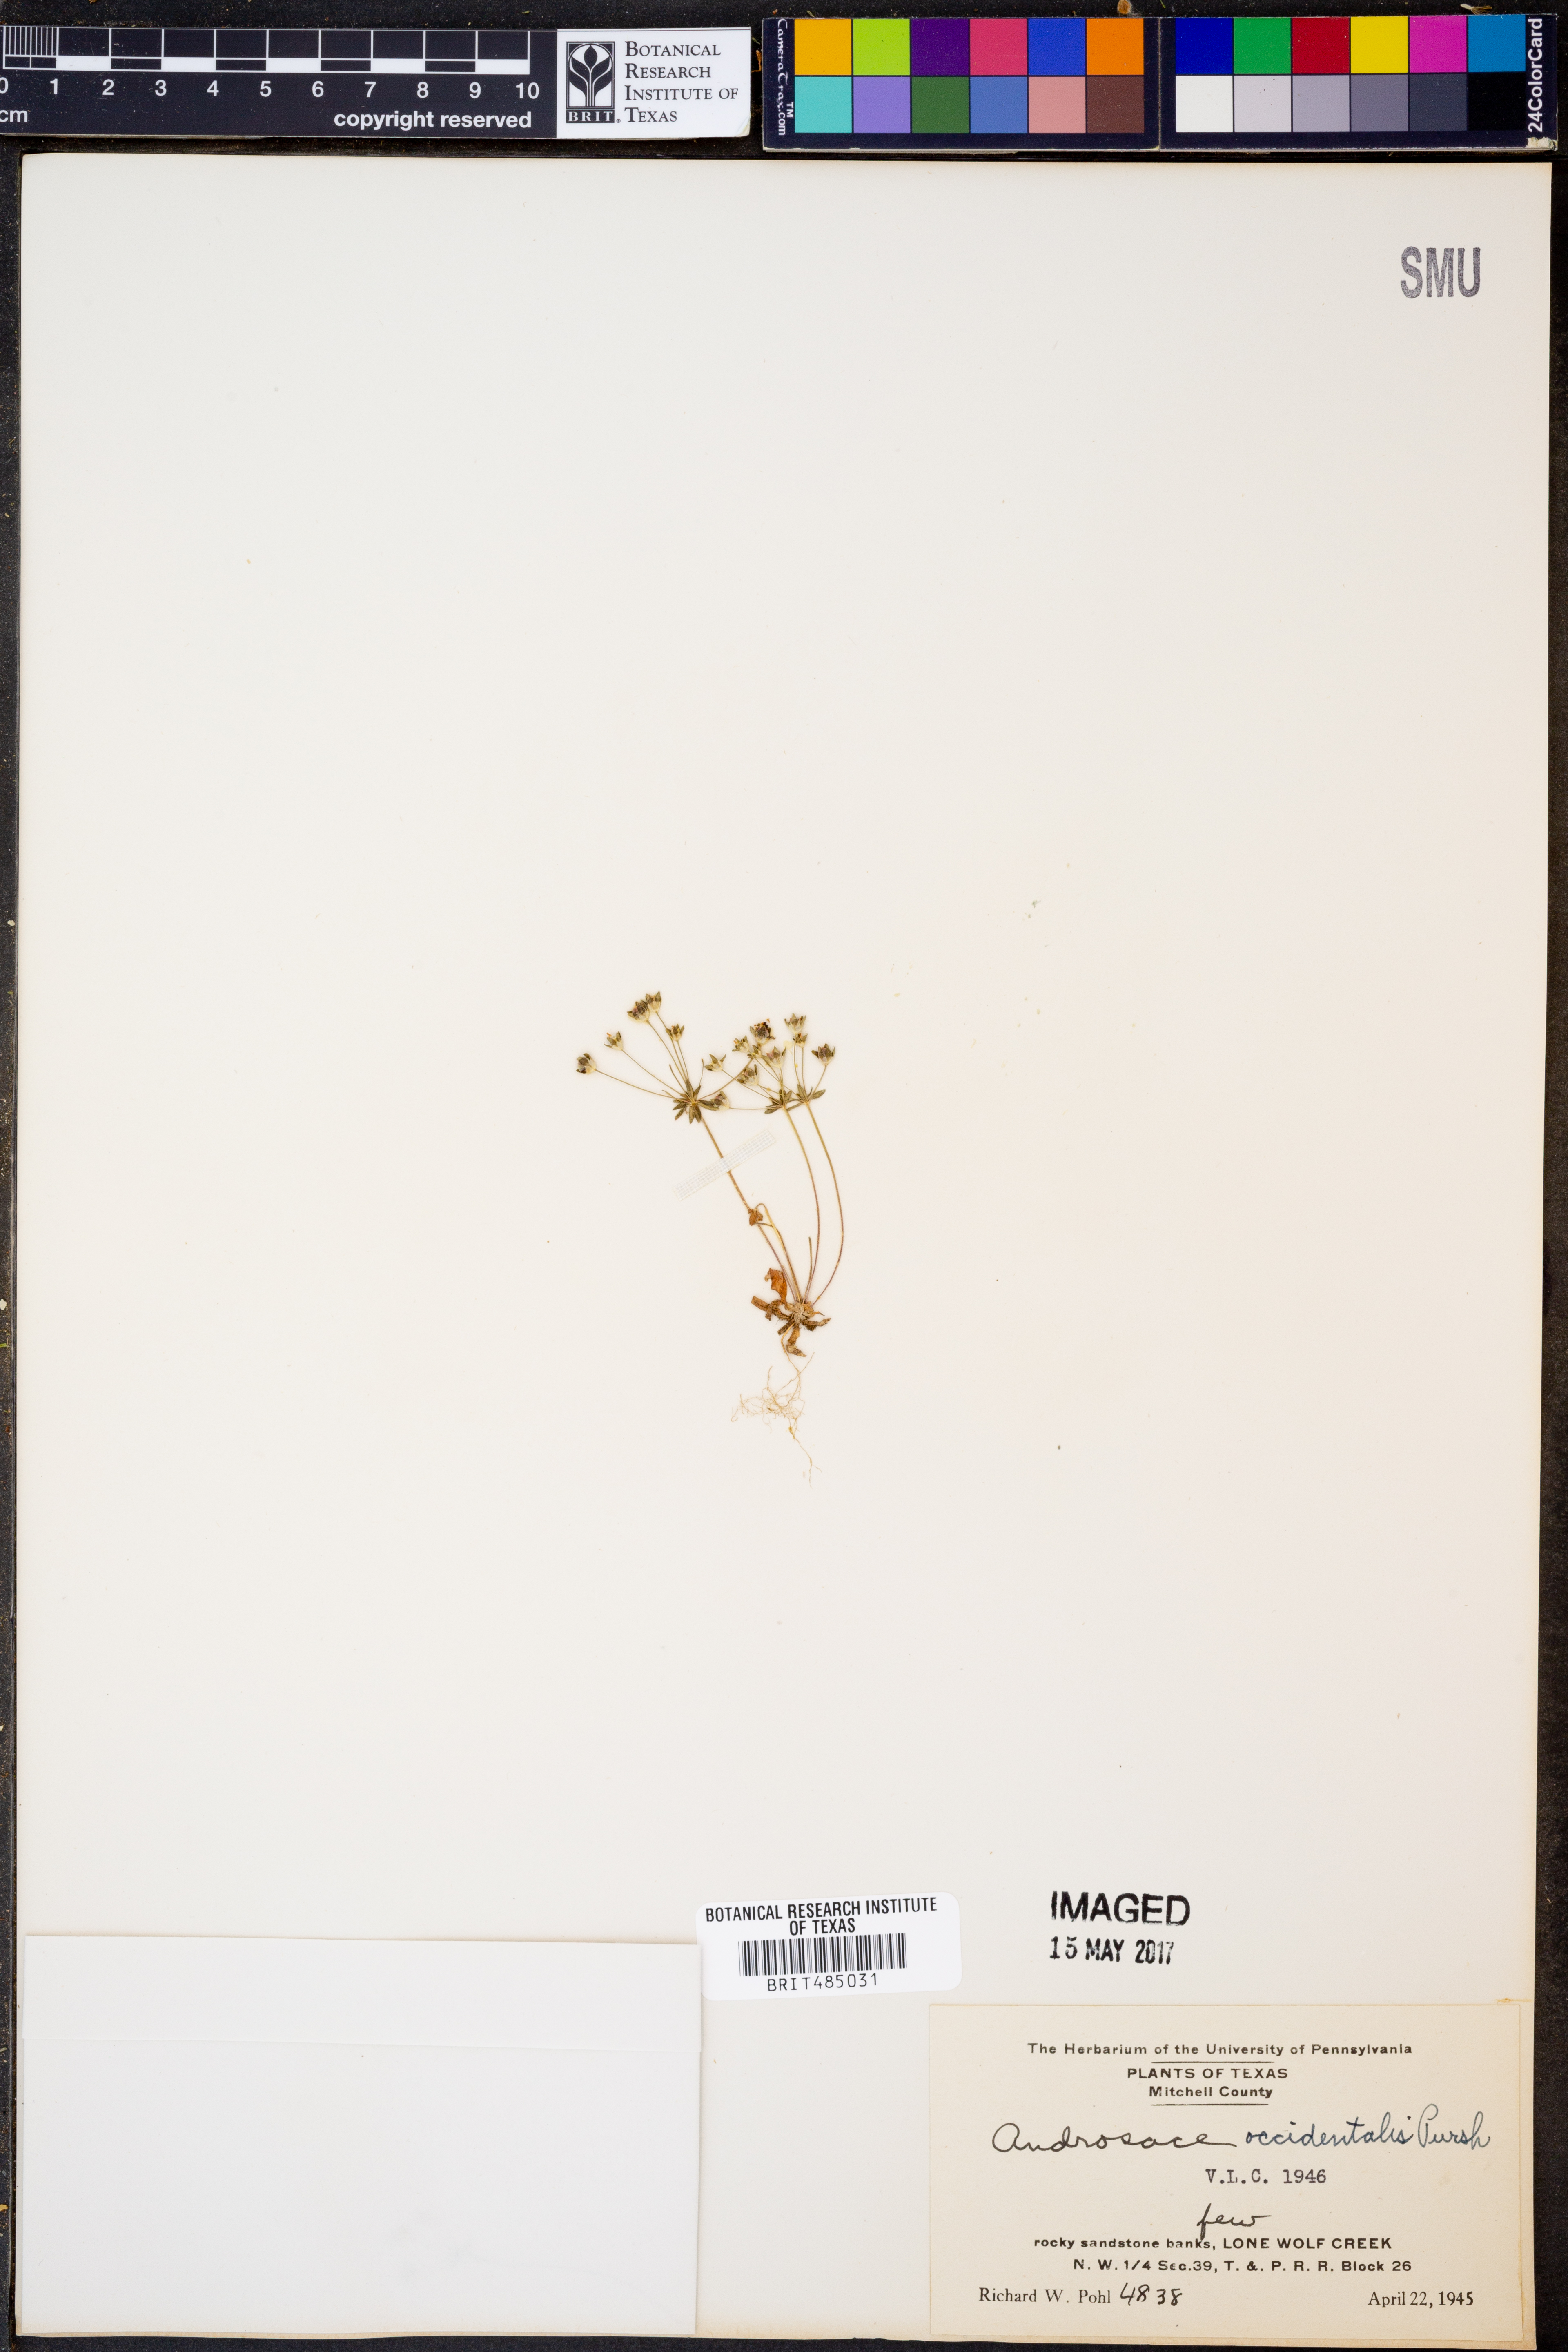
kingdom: Plantae
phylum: Tracheophyta
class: Magnoliopsida
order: Ericales
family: Primulaceae
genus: Androsace
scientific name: Androsace occidentalis
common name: West rock-jasmine
